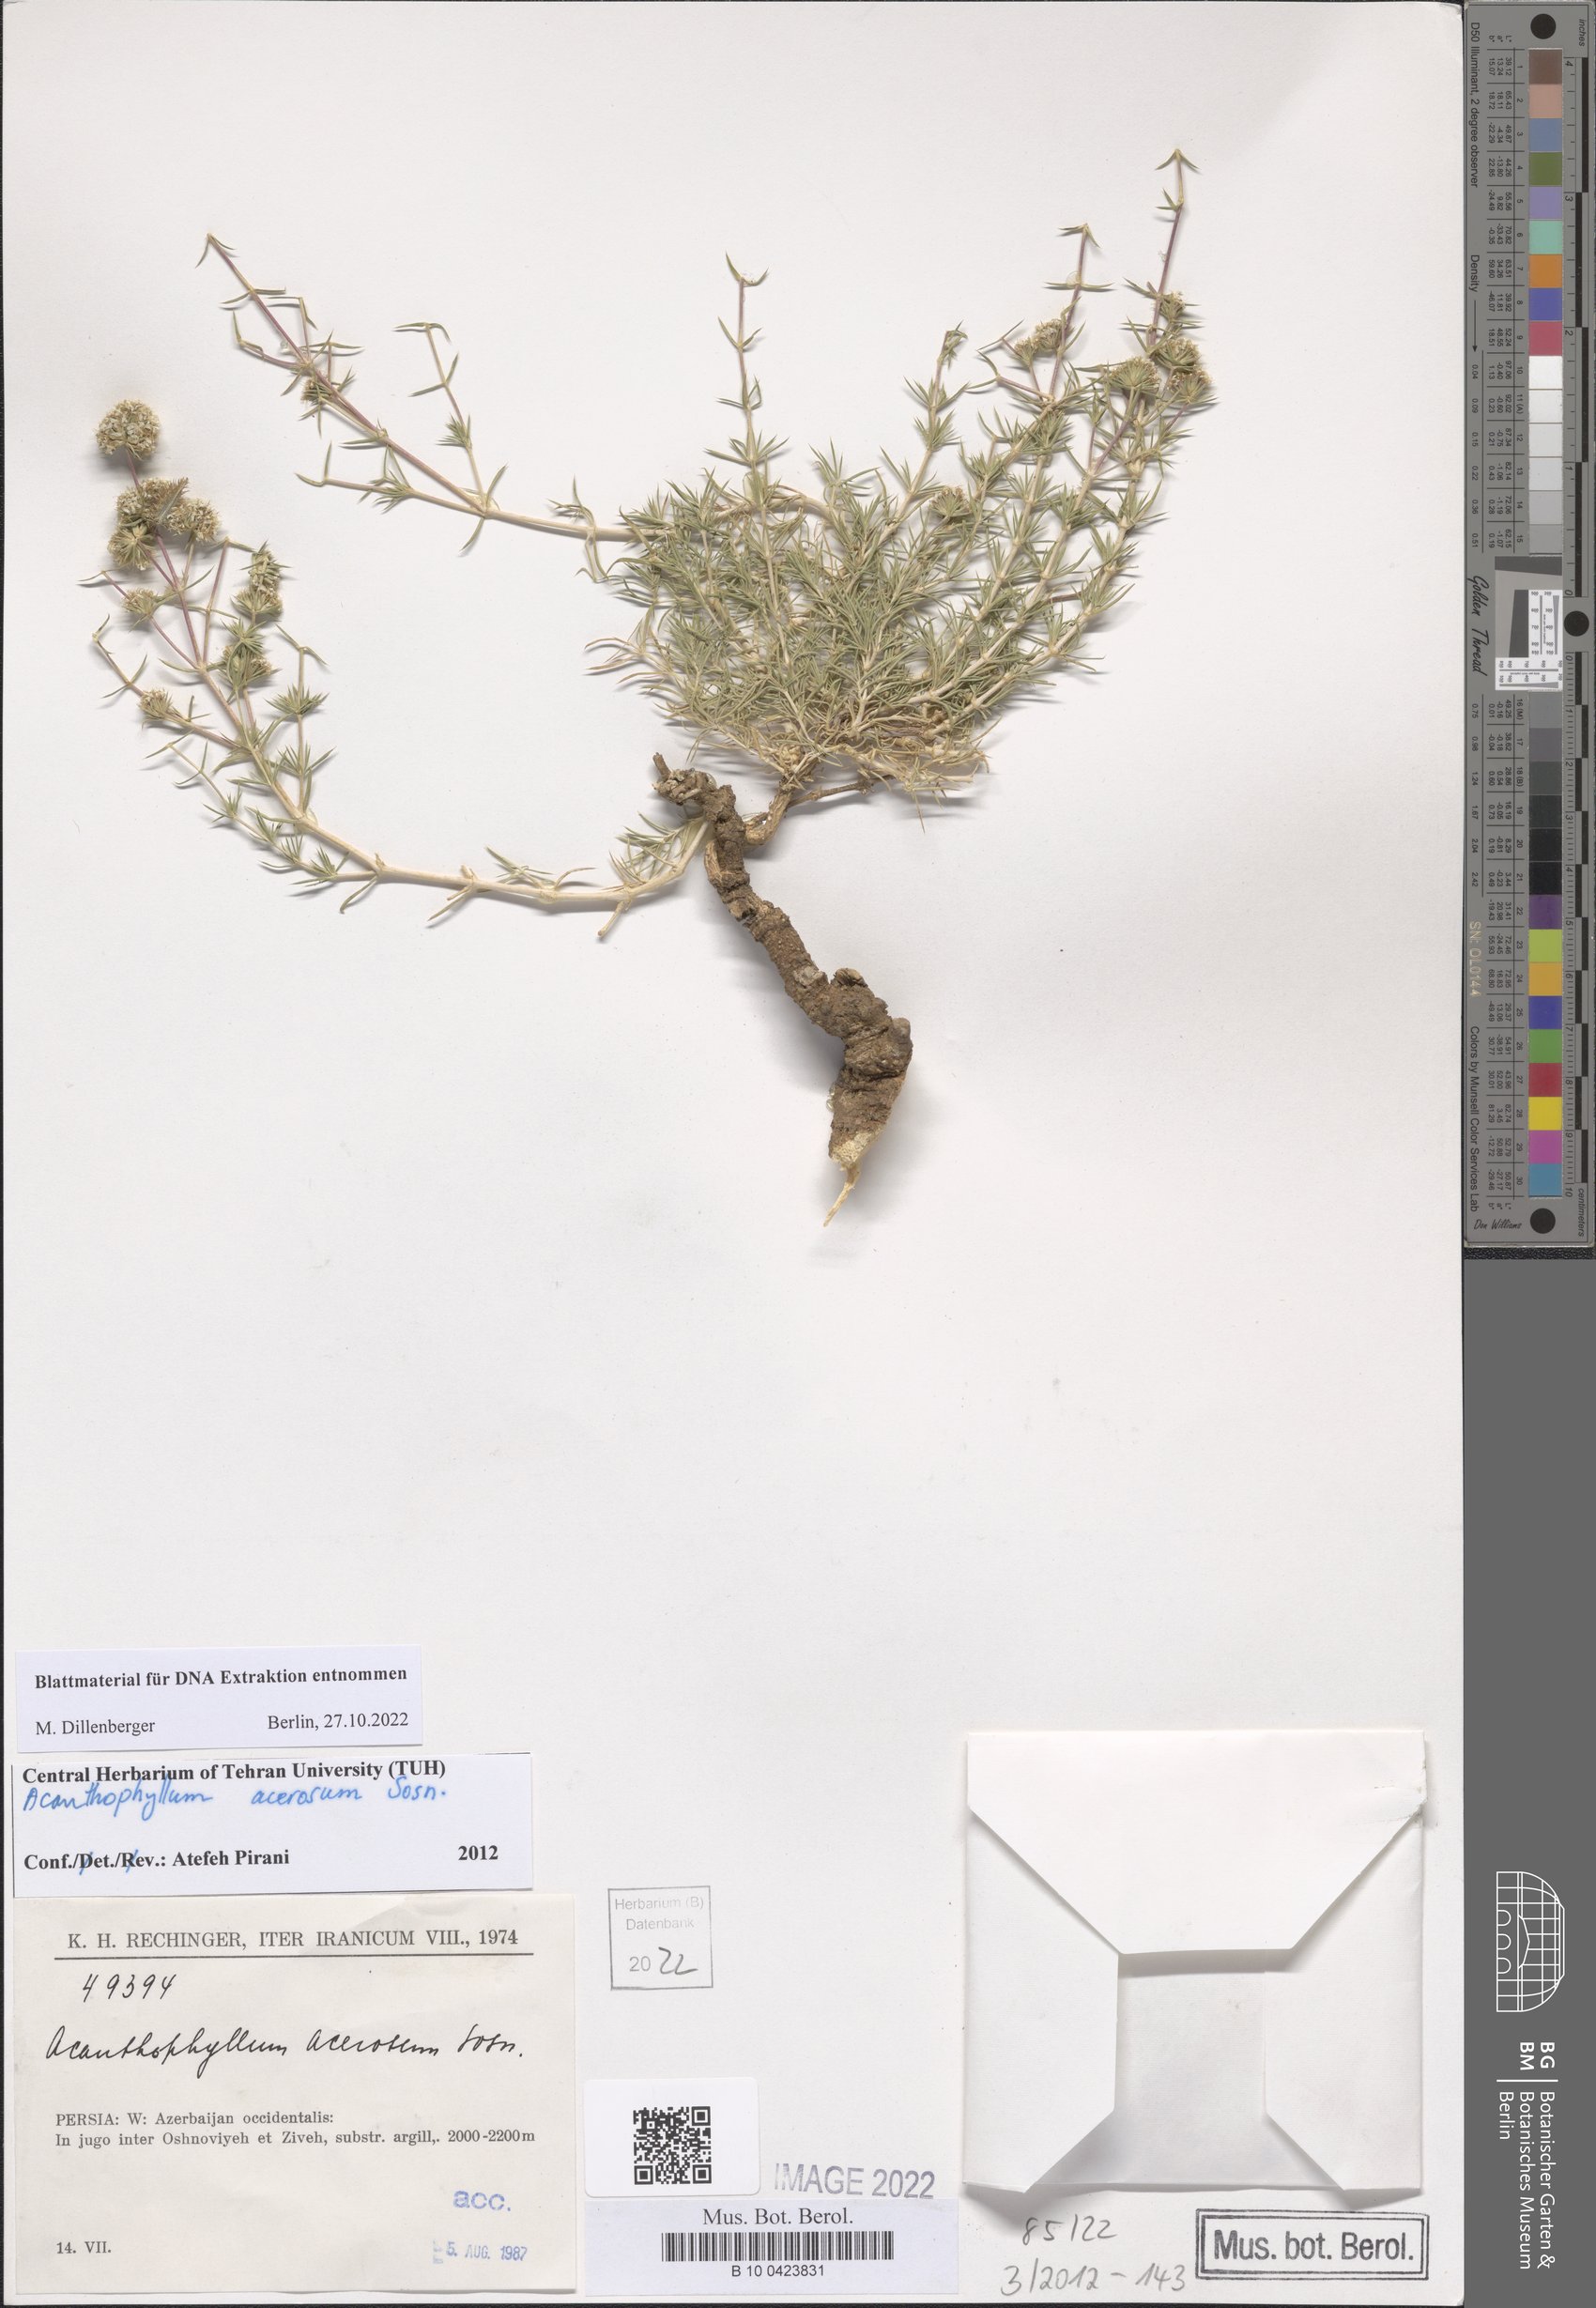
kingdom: Plantae
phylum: Tracheophyta
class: Magnoliopsida
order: Caryophyllales
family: Caryophyllaceae
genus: Acanthophyllum
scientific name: Acanthophyllum acerosum
